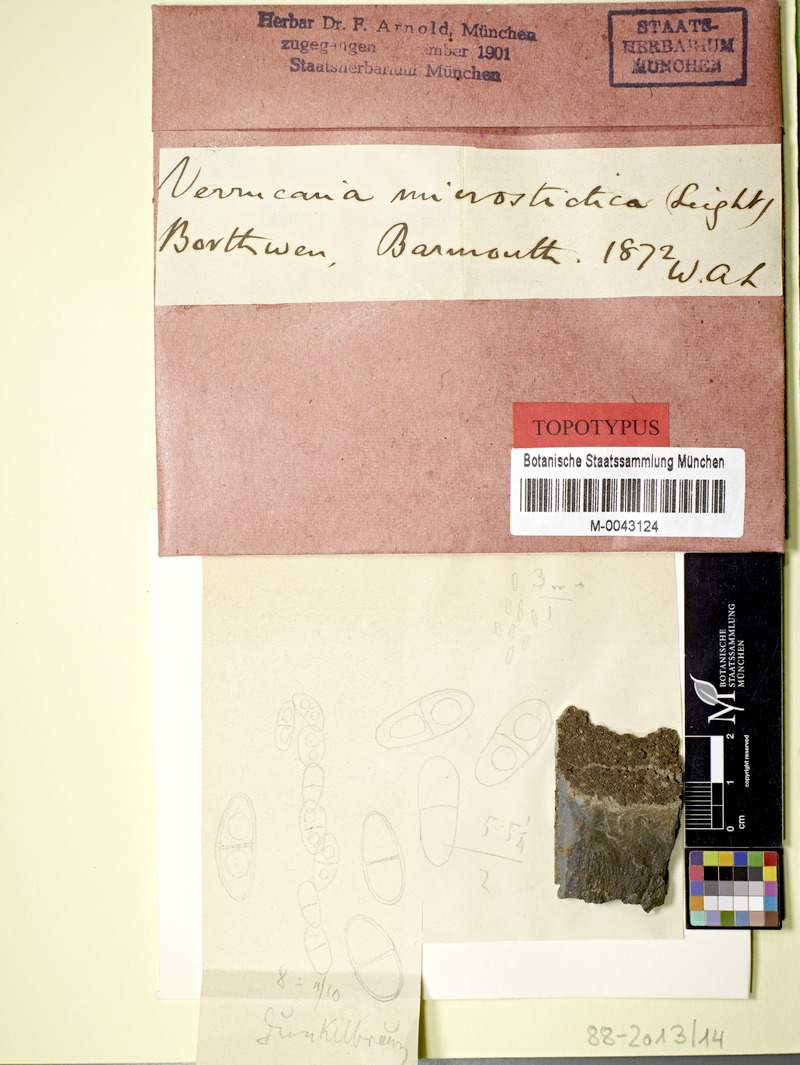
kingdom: Fungi
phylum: Ascomycota
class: Lecanoromycetes
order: Acarosporales
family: Acarosporaceae
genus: Acarospora
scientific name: Acarospora
